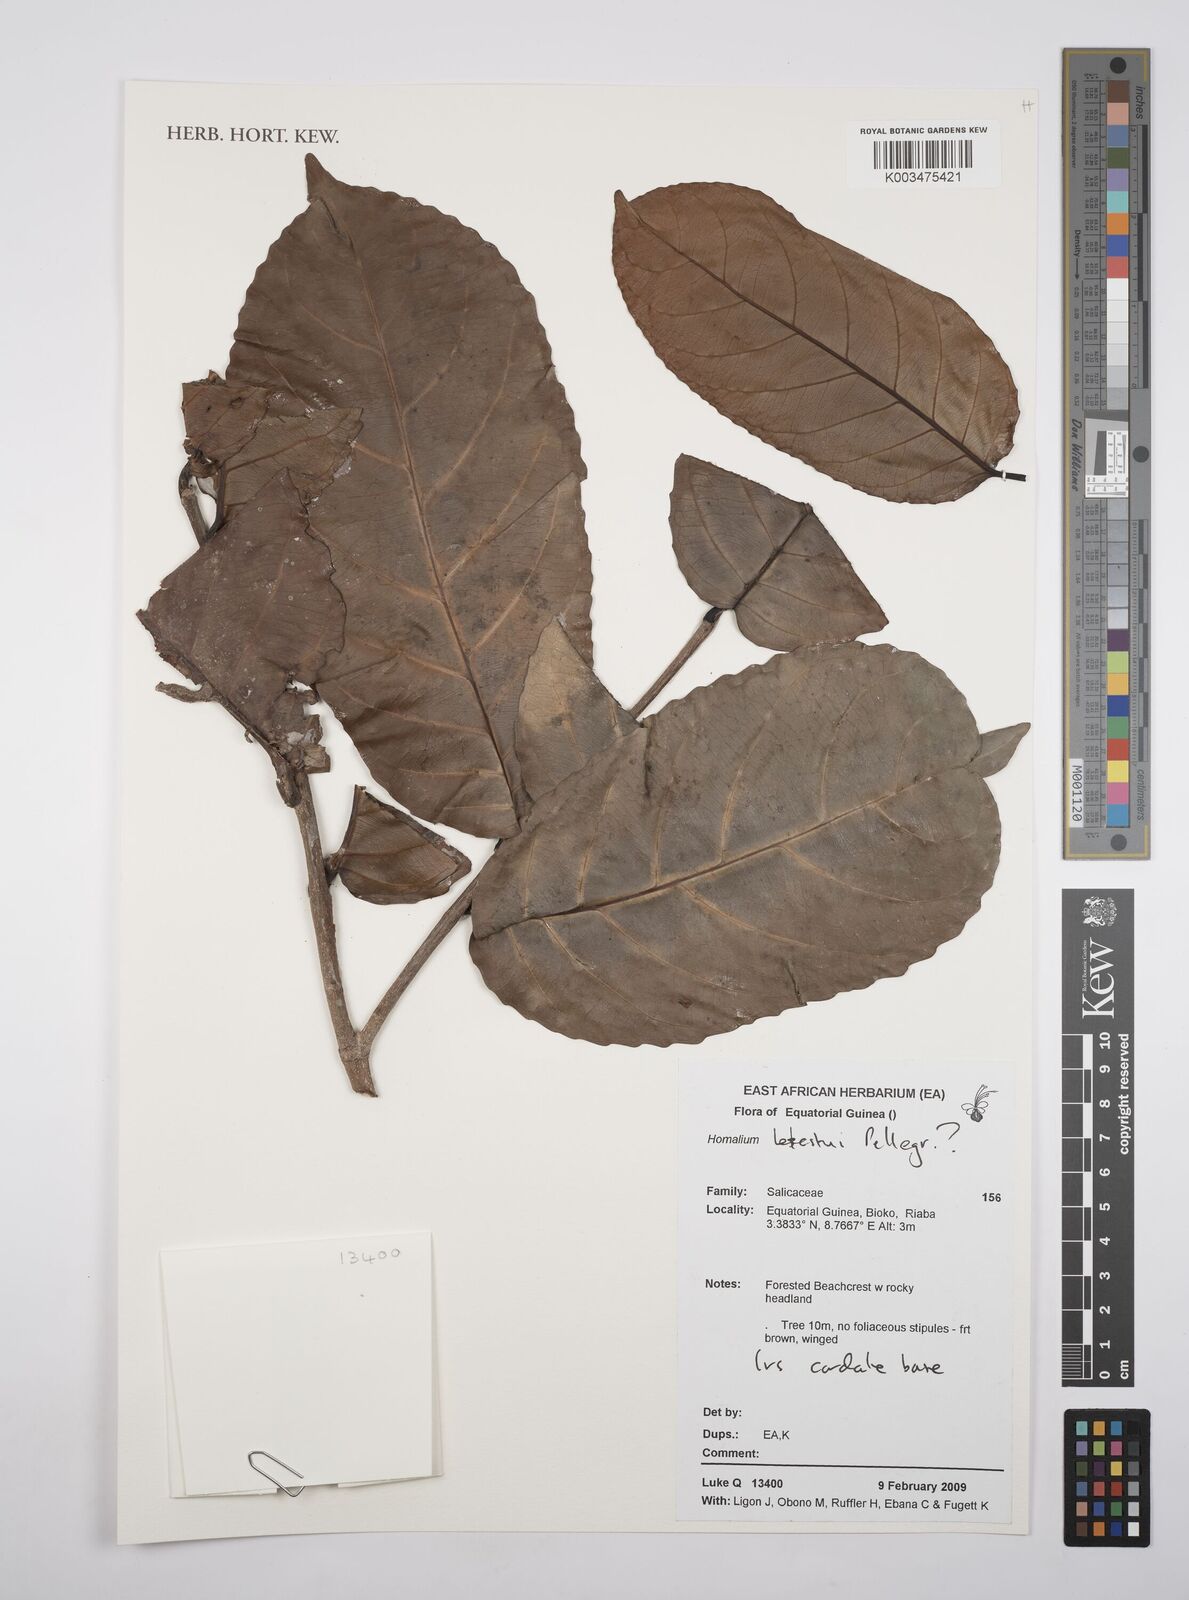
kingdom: Plantae
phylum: Tracheophyta
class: Magnoliopsida
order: Malpighiales
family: Salicaceae
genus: Homalium
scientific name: Homalium letestui
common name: African homalium
